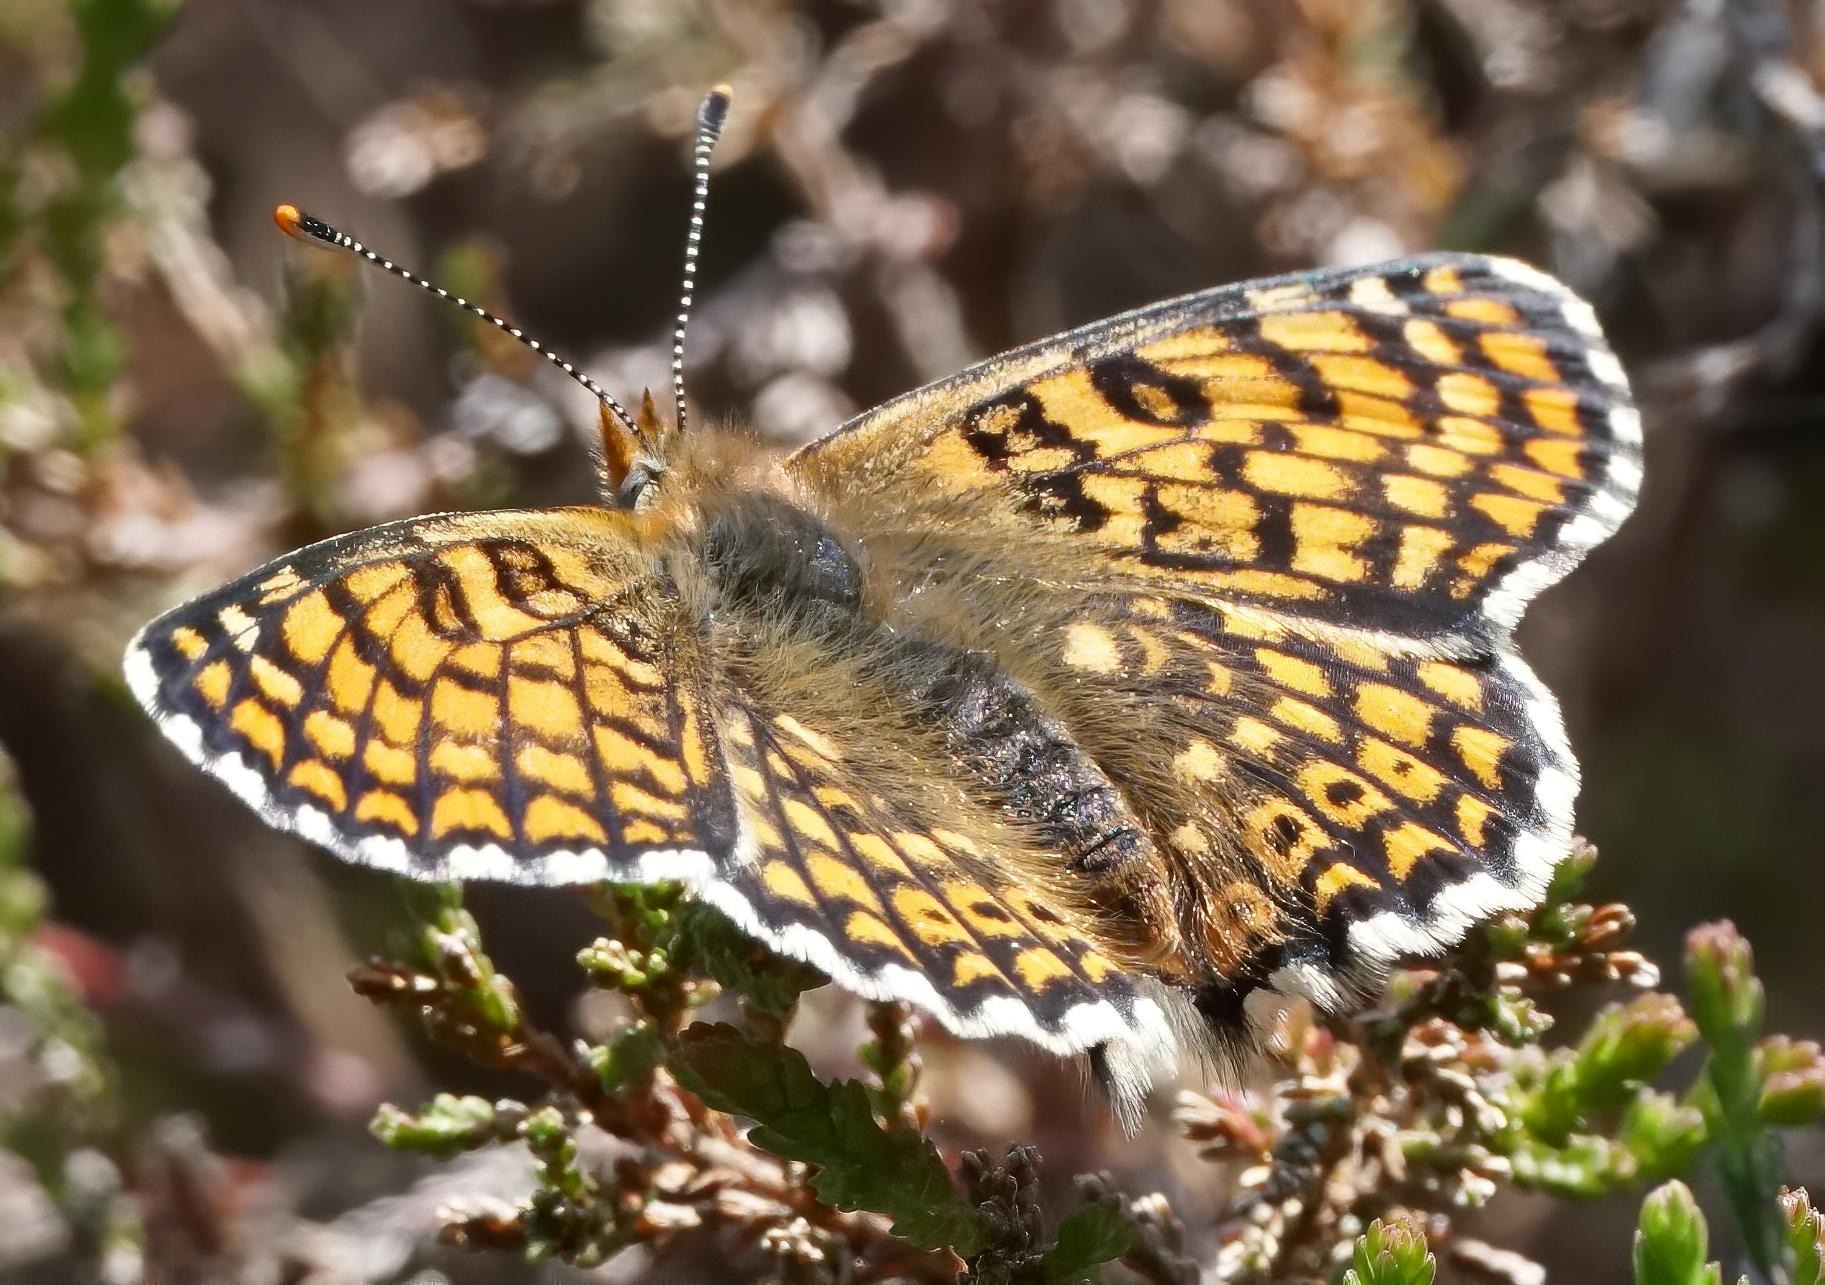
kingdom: Animalia
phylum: Arthropoda
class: Insecta
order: Lepidoptera
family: Nymphalidae
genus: Melitaea
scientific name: Melitaea cinxia
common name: Okkergul pletvinge
